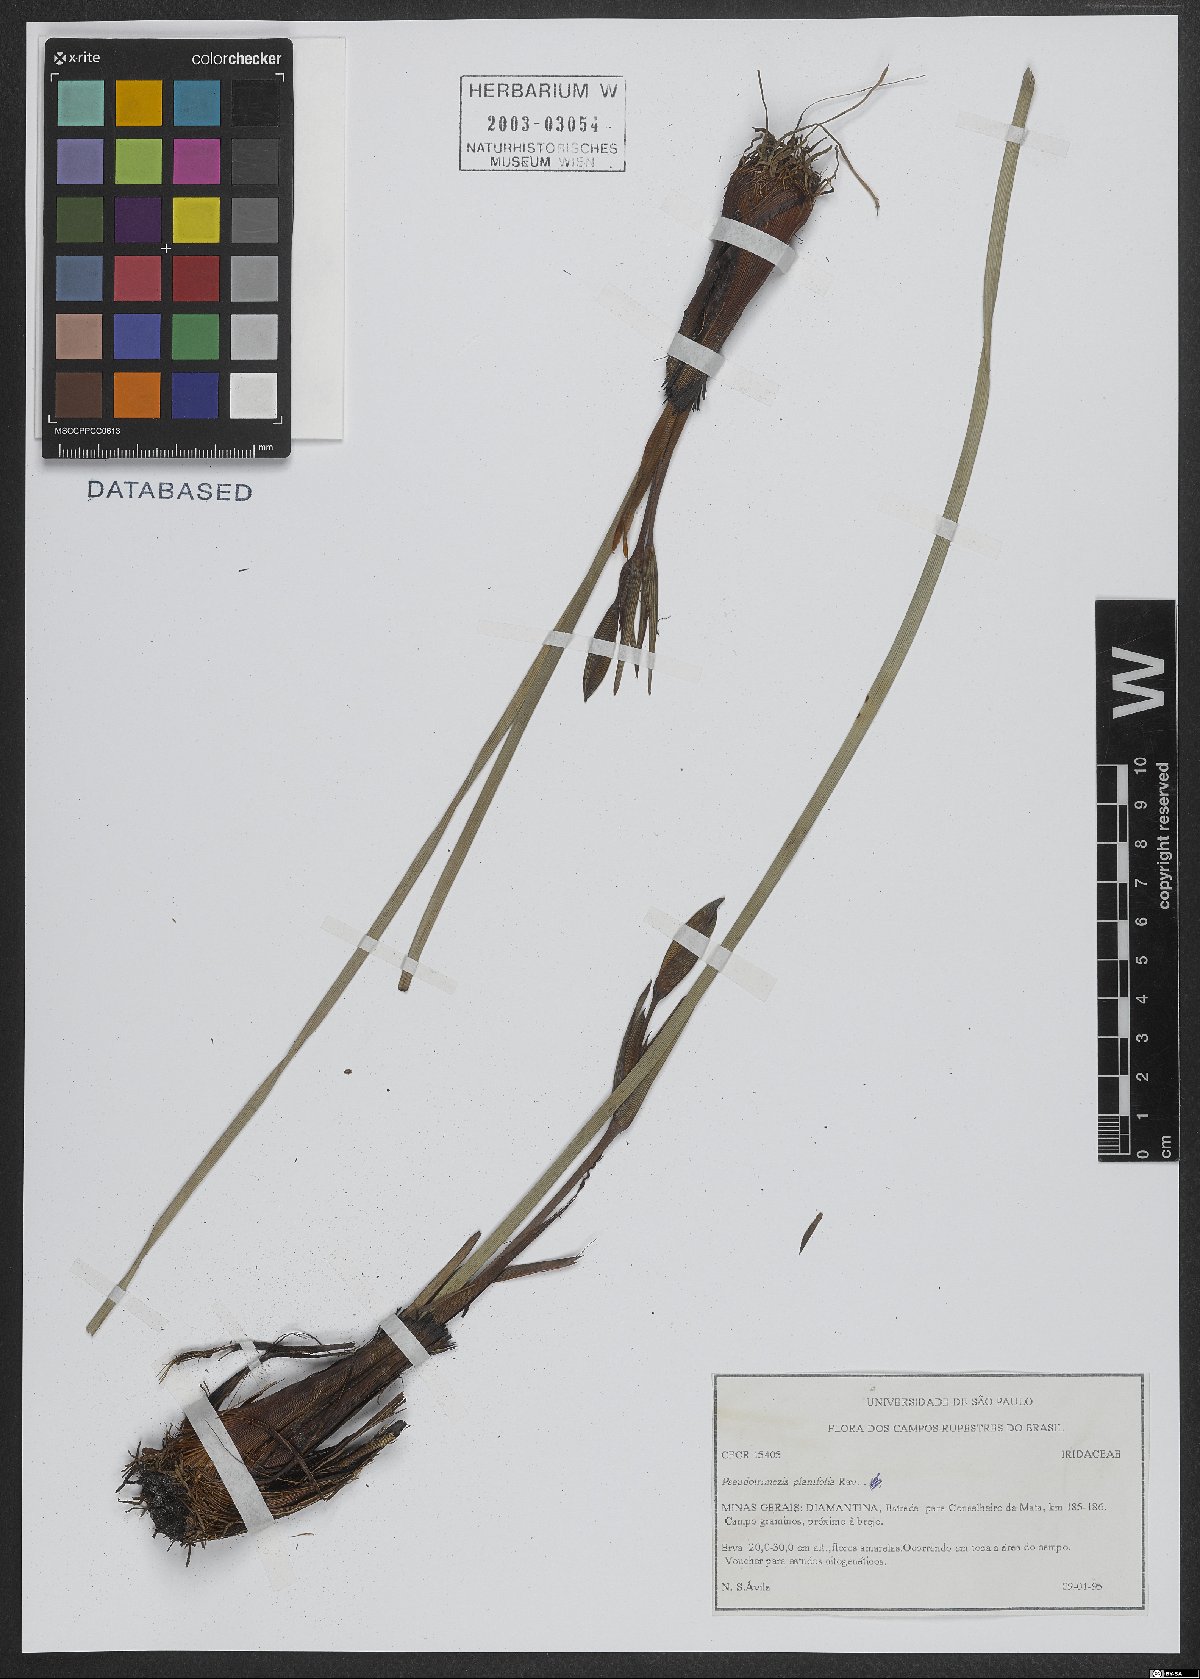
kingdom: Plantae
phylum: Tracheophyta
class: Liliopsida
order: Asparagales
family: Iridaceae
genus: Trimezia
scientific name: Trimezia xyridea
